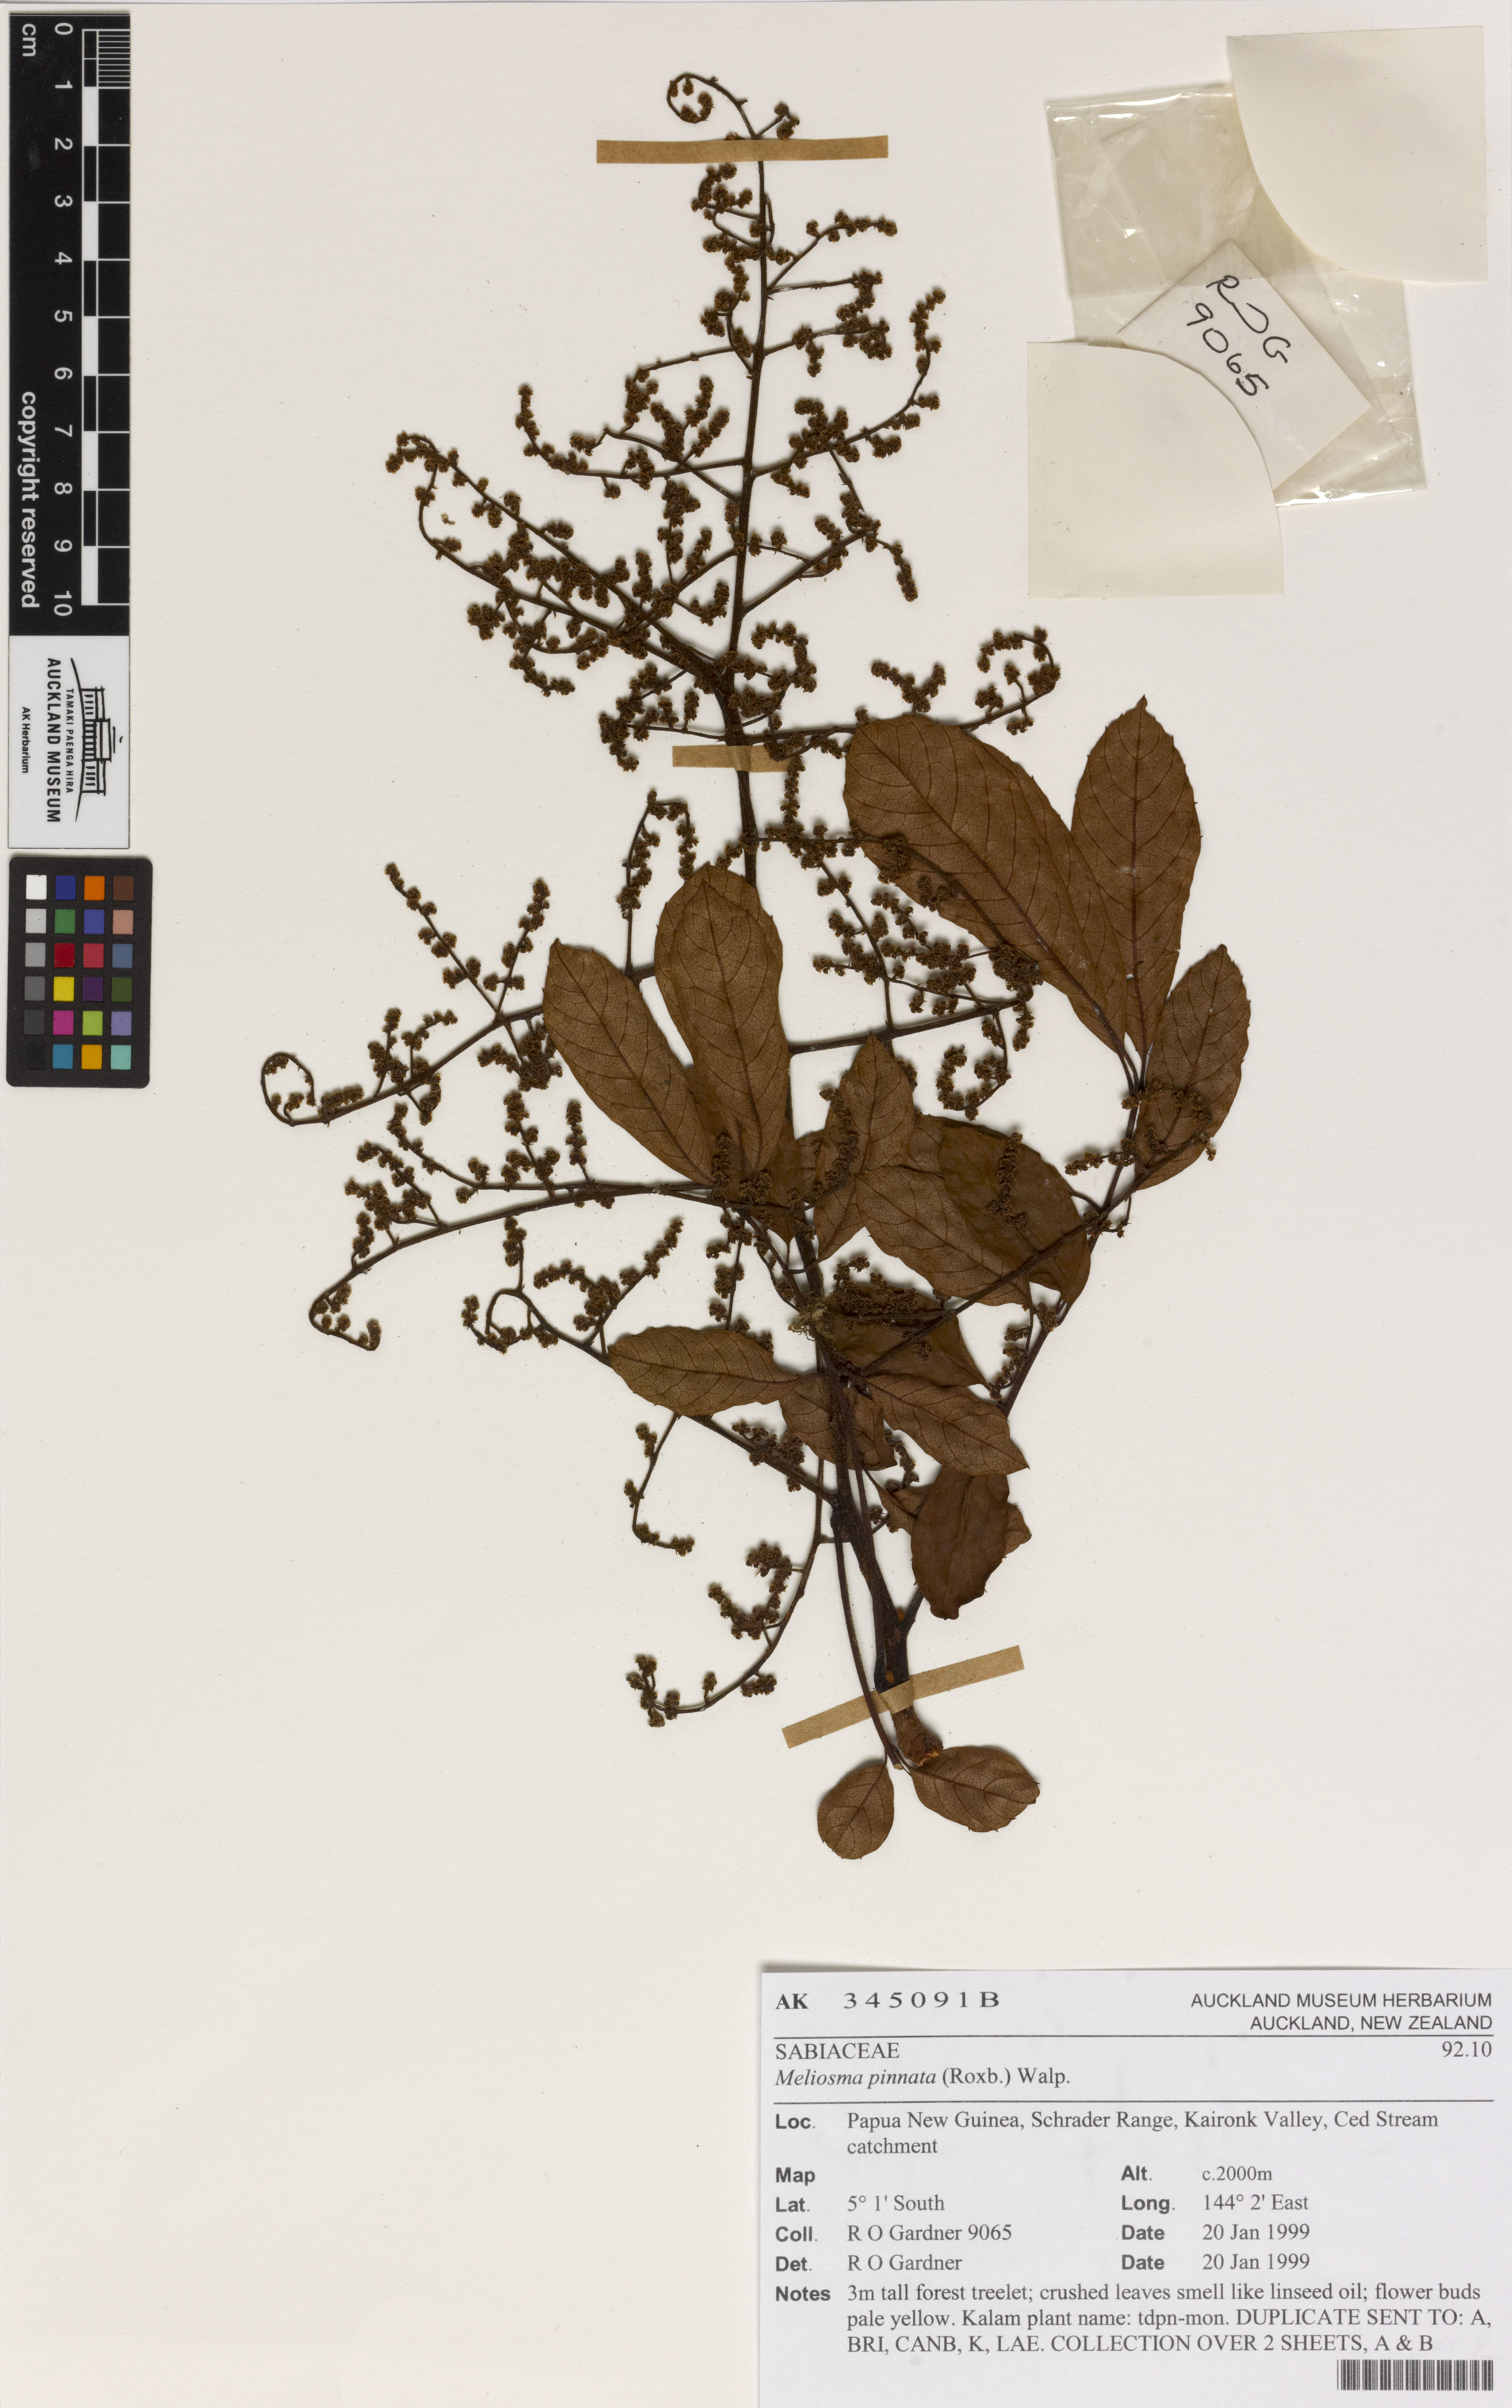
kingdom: Plantae
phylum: Tracheophyta
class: Magnoliopsida
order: Proteales
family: Sabiaceae
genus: Meliosma
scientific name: Meliosma pinnata
